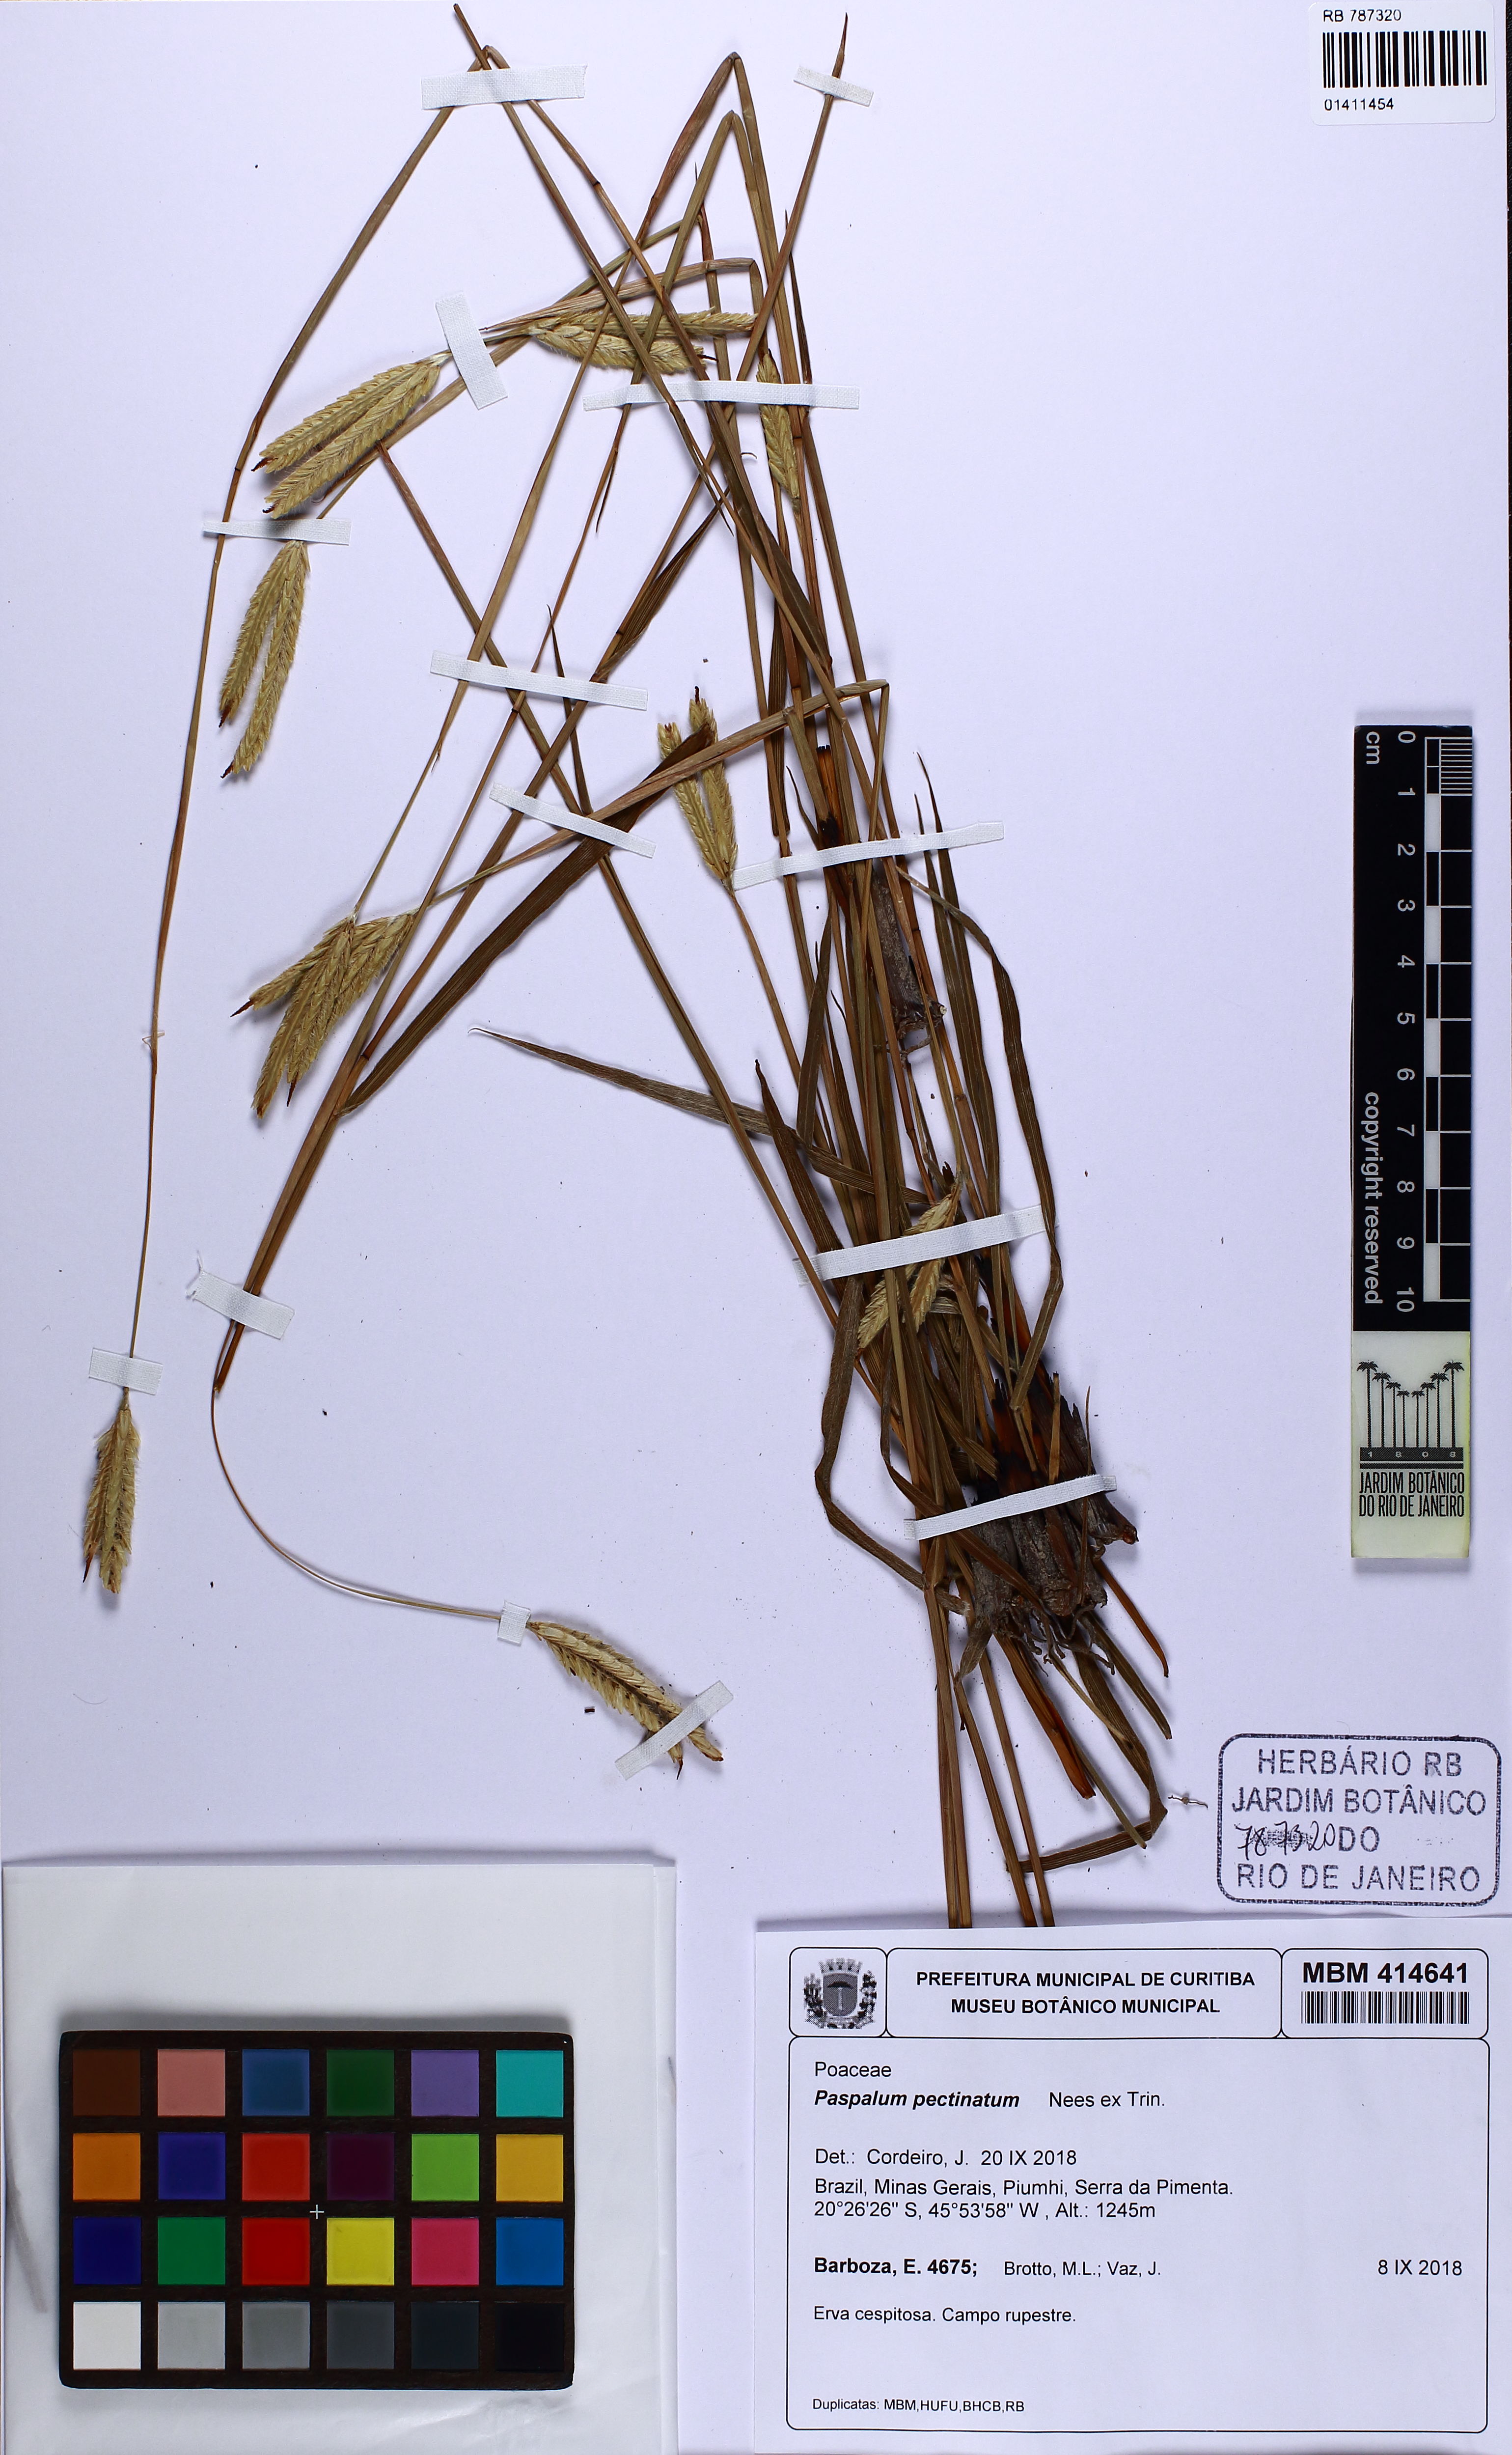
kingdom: Plantae
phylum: Tracheophyta
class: Liliopsida
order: Poales
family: Poaceae
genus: Paspalum
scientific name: Paspalum pectinatum
